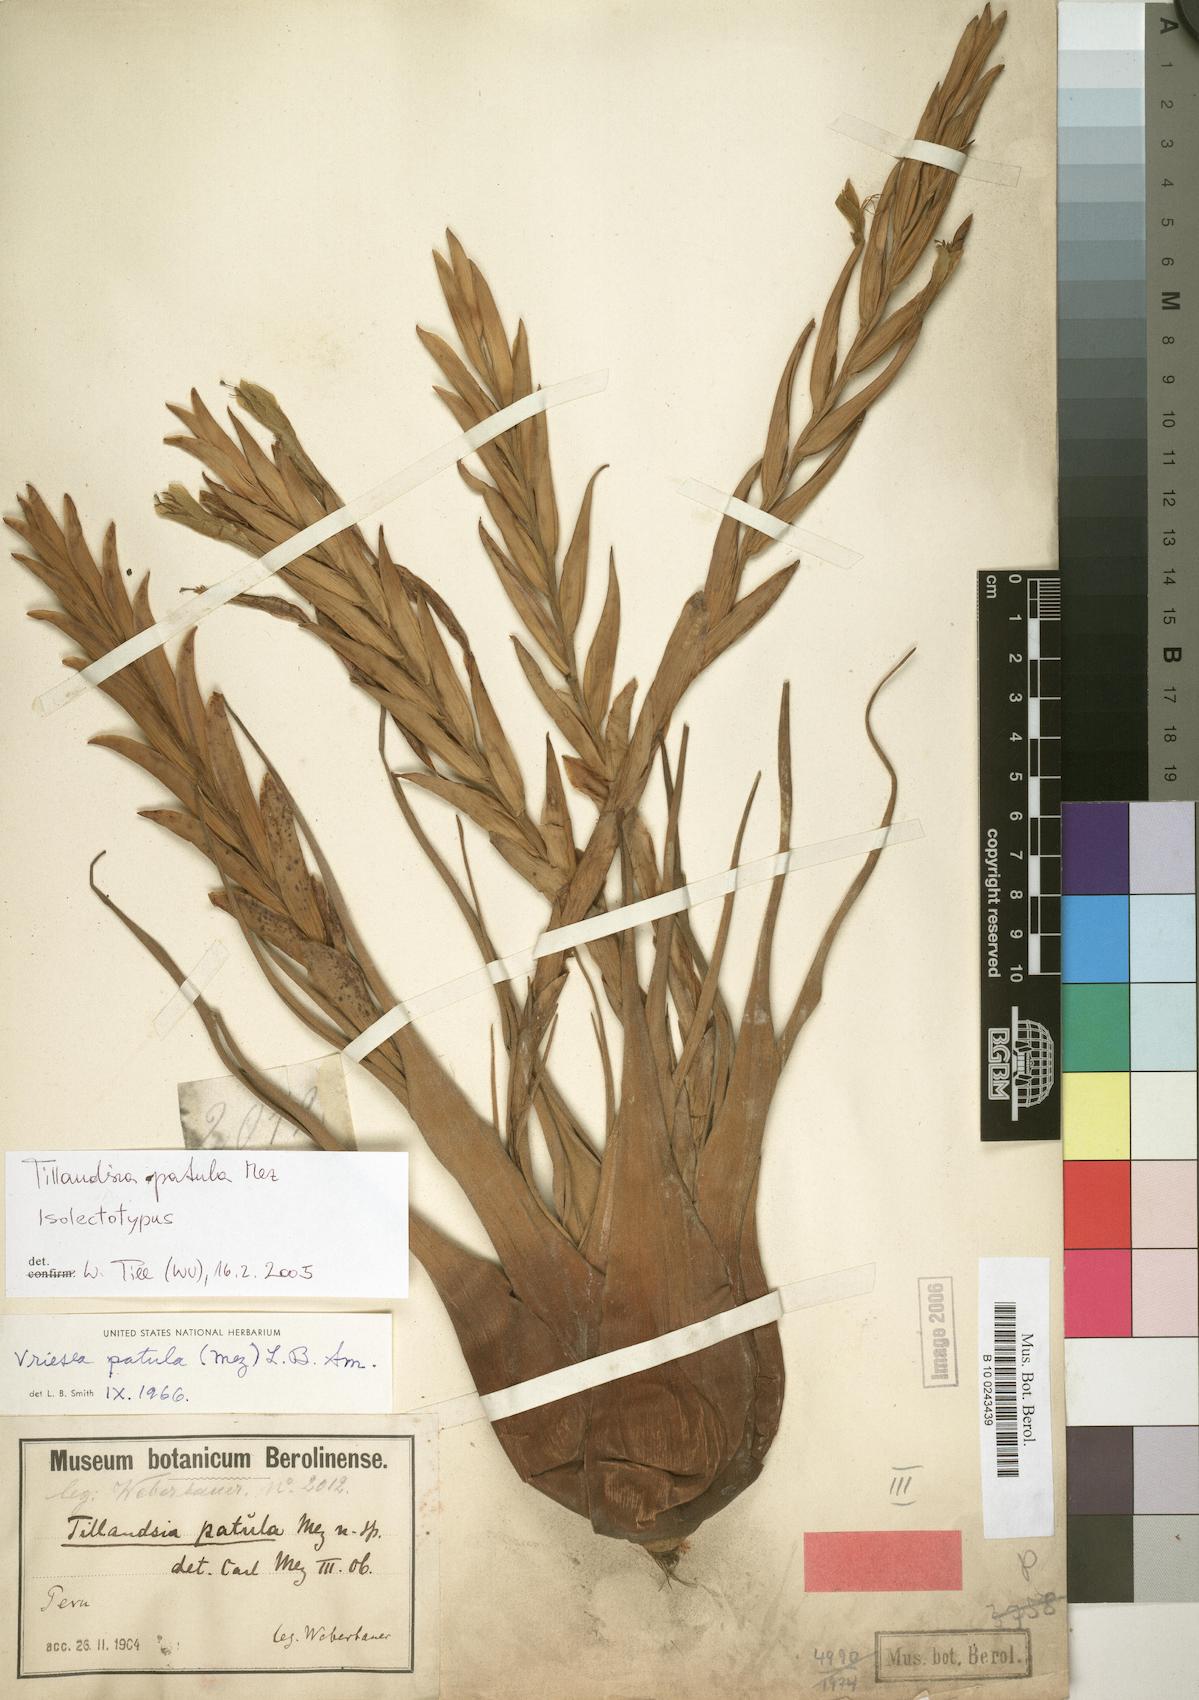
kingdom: Plantae
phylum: Tracheophyta
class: Liliopsida
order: Poales
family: Bromeliaceae
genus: Vriesea
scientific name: Vriesea patula
